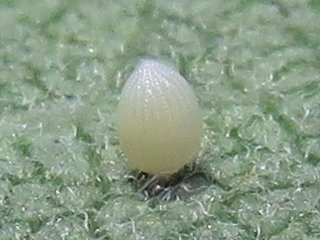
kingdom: Animalia
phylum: Arthropoda
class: Insecta
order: Lepidoptera
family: Nymphalidae
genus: Danaus
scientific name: Danaus plexippus
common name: Monarch
